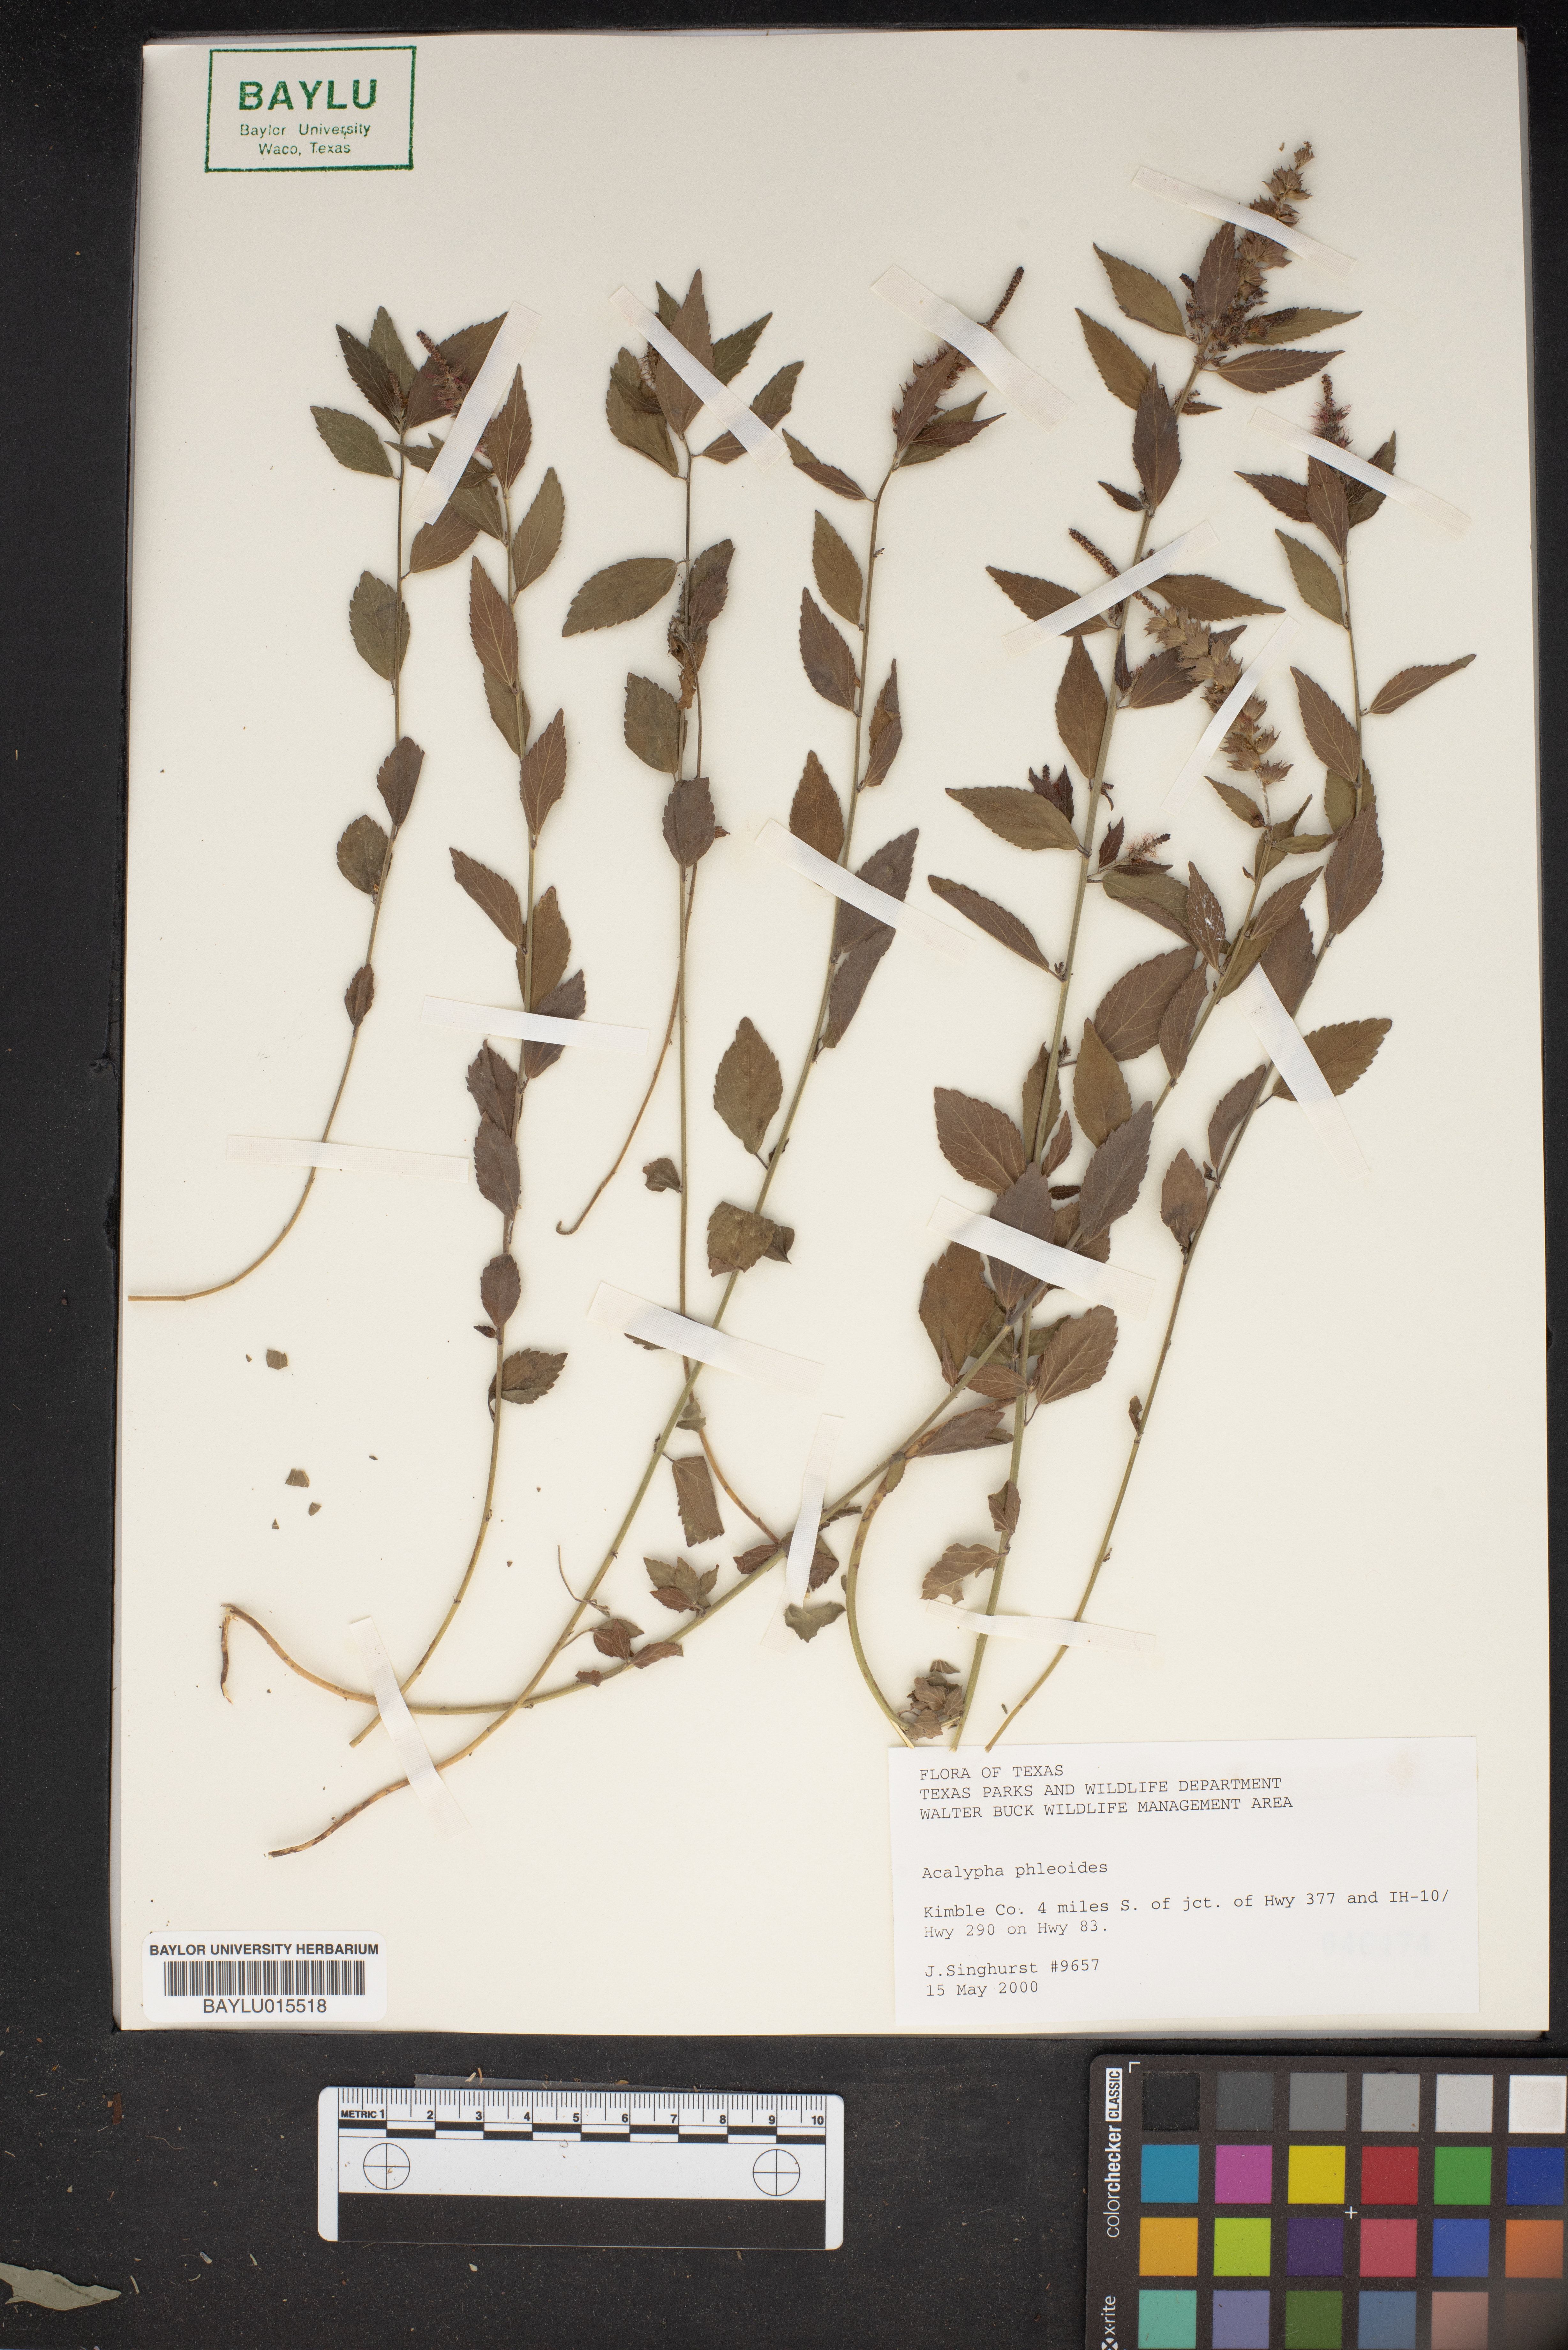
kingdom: Plantae
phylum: Tracheophyta
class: Magnoliopsida
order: Malpighiales
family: Euphorbiaceae
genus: Acalypha
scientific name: Acalypha phleoides
